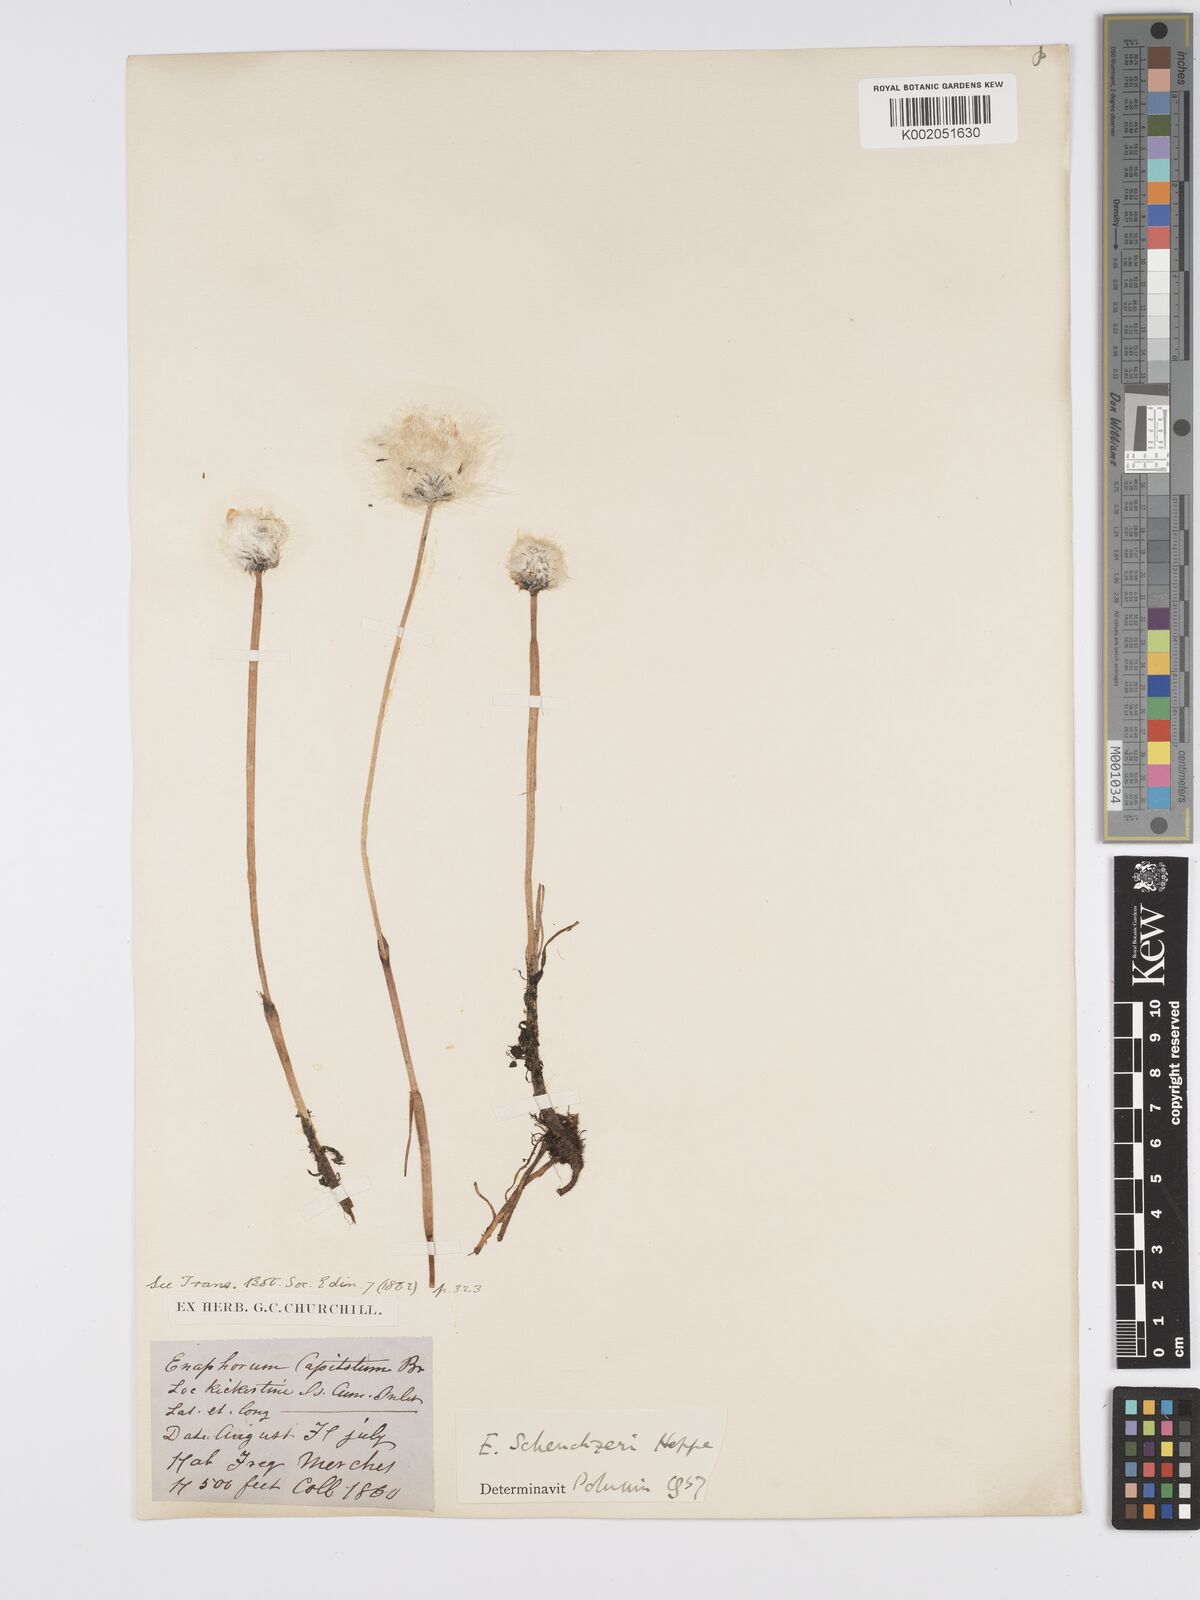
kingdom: Plantae
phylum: Tracheophyta
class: Liliopsida
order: Poales
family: Cyperaceae
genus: Eriophorum
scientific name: Eriophorum scheuchzeri
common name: Scheuchzer's cottongrass
